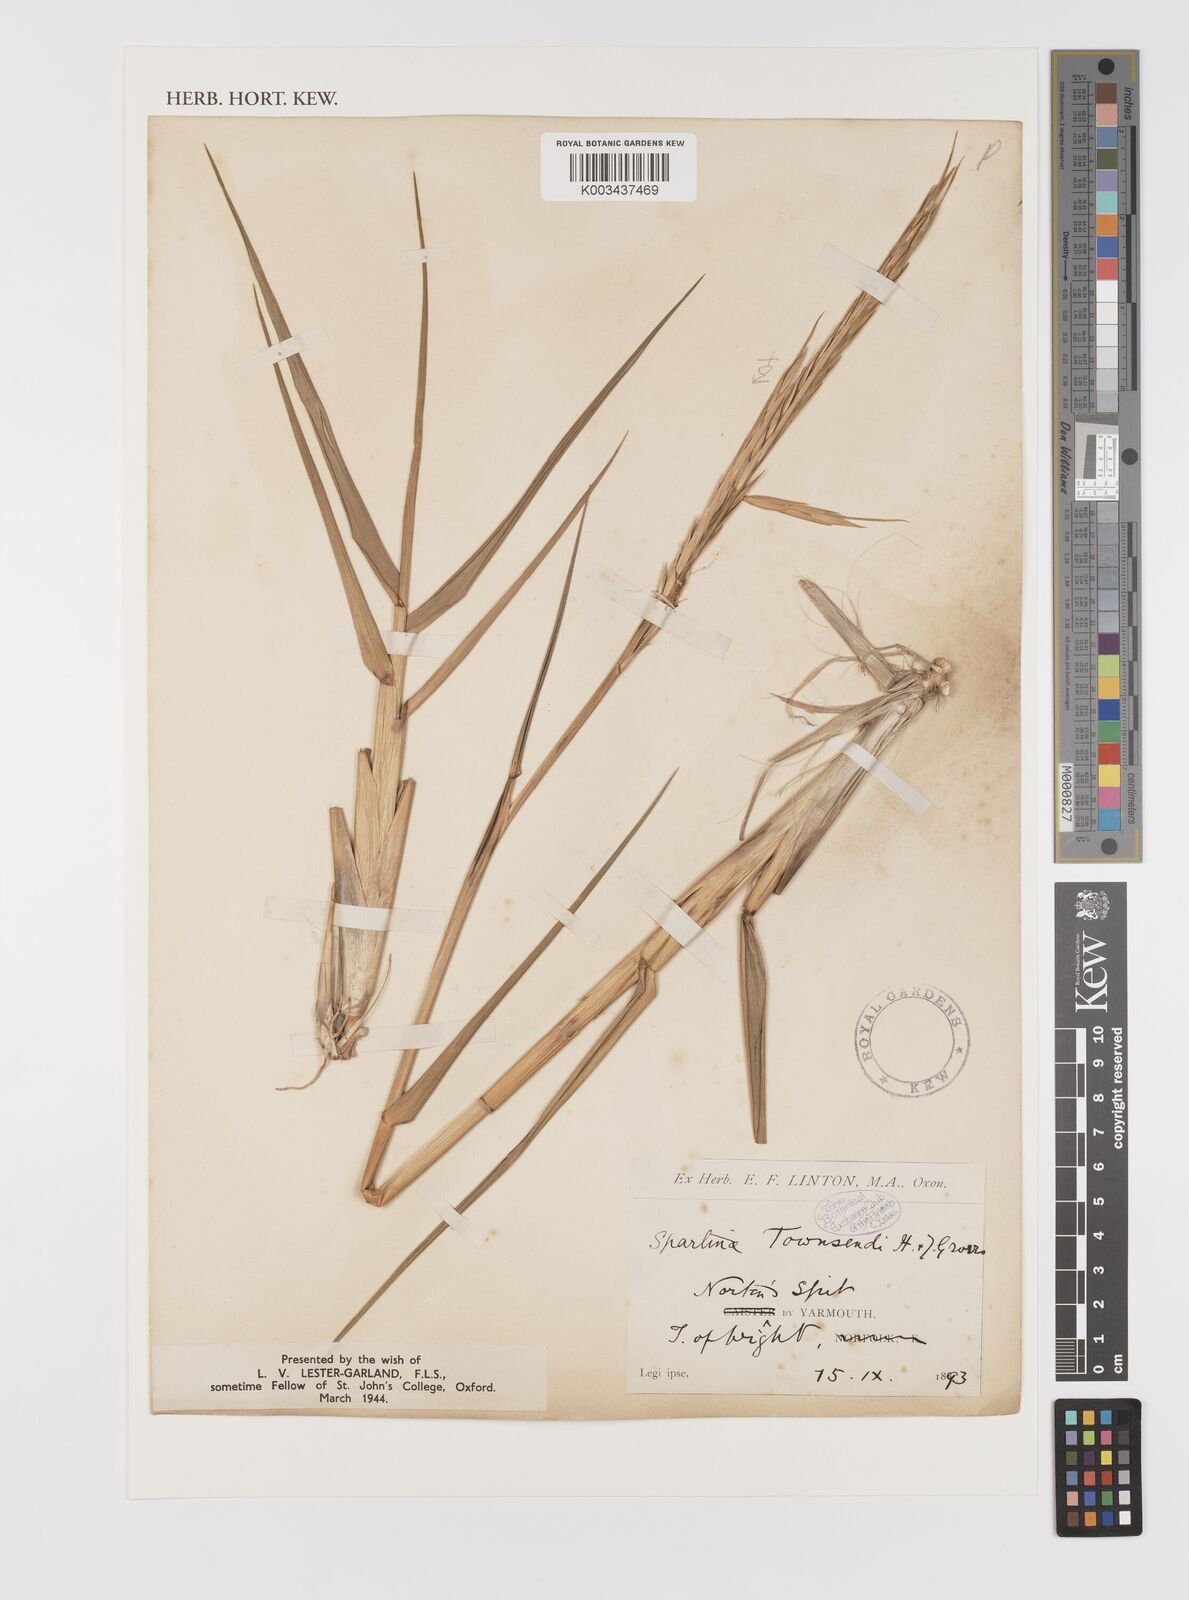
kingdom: Plantae
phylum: Tracheophyta
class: Liliopsida
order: Poales
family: Poaceae
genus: Sporobolus
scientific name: Sporobolus anglicus
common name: English cordgrass
